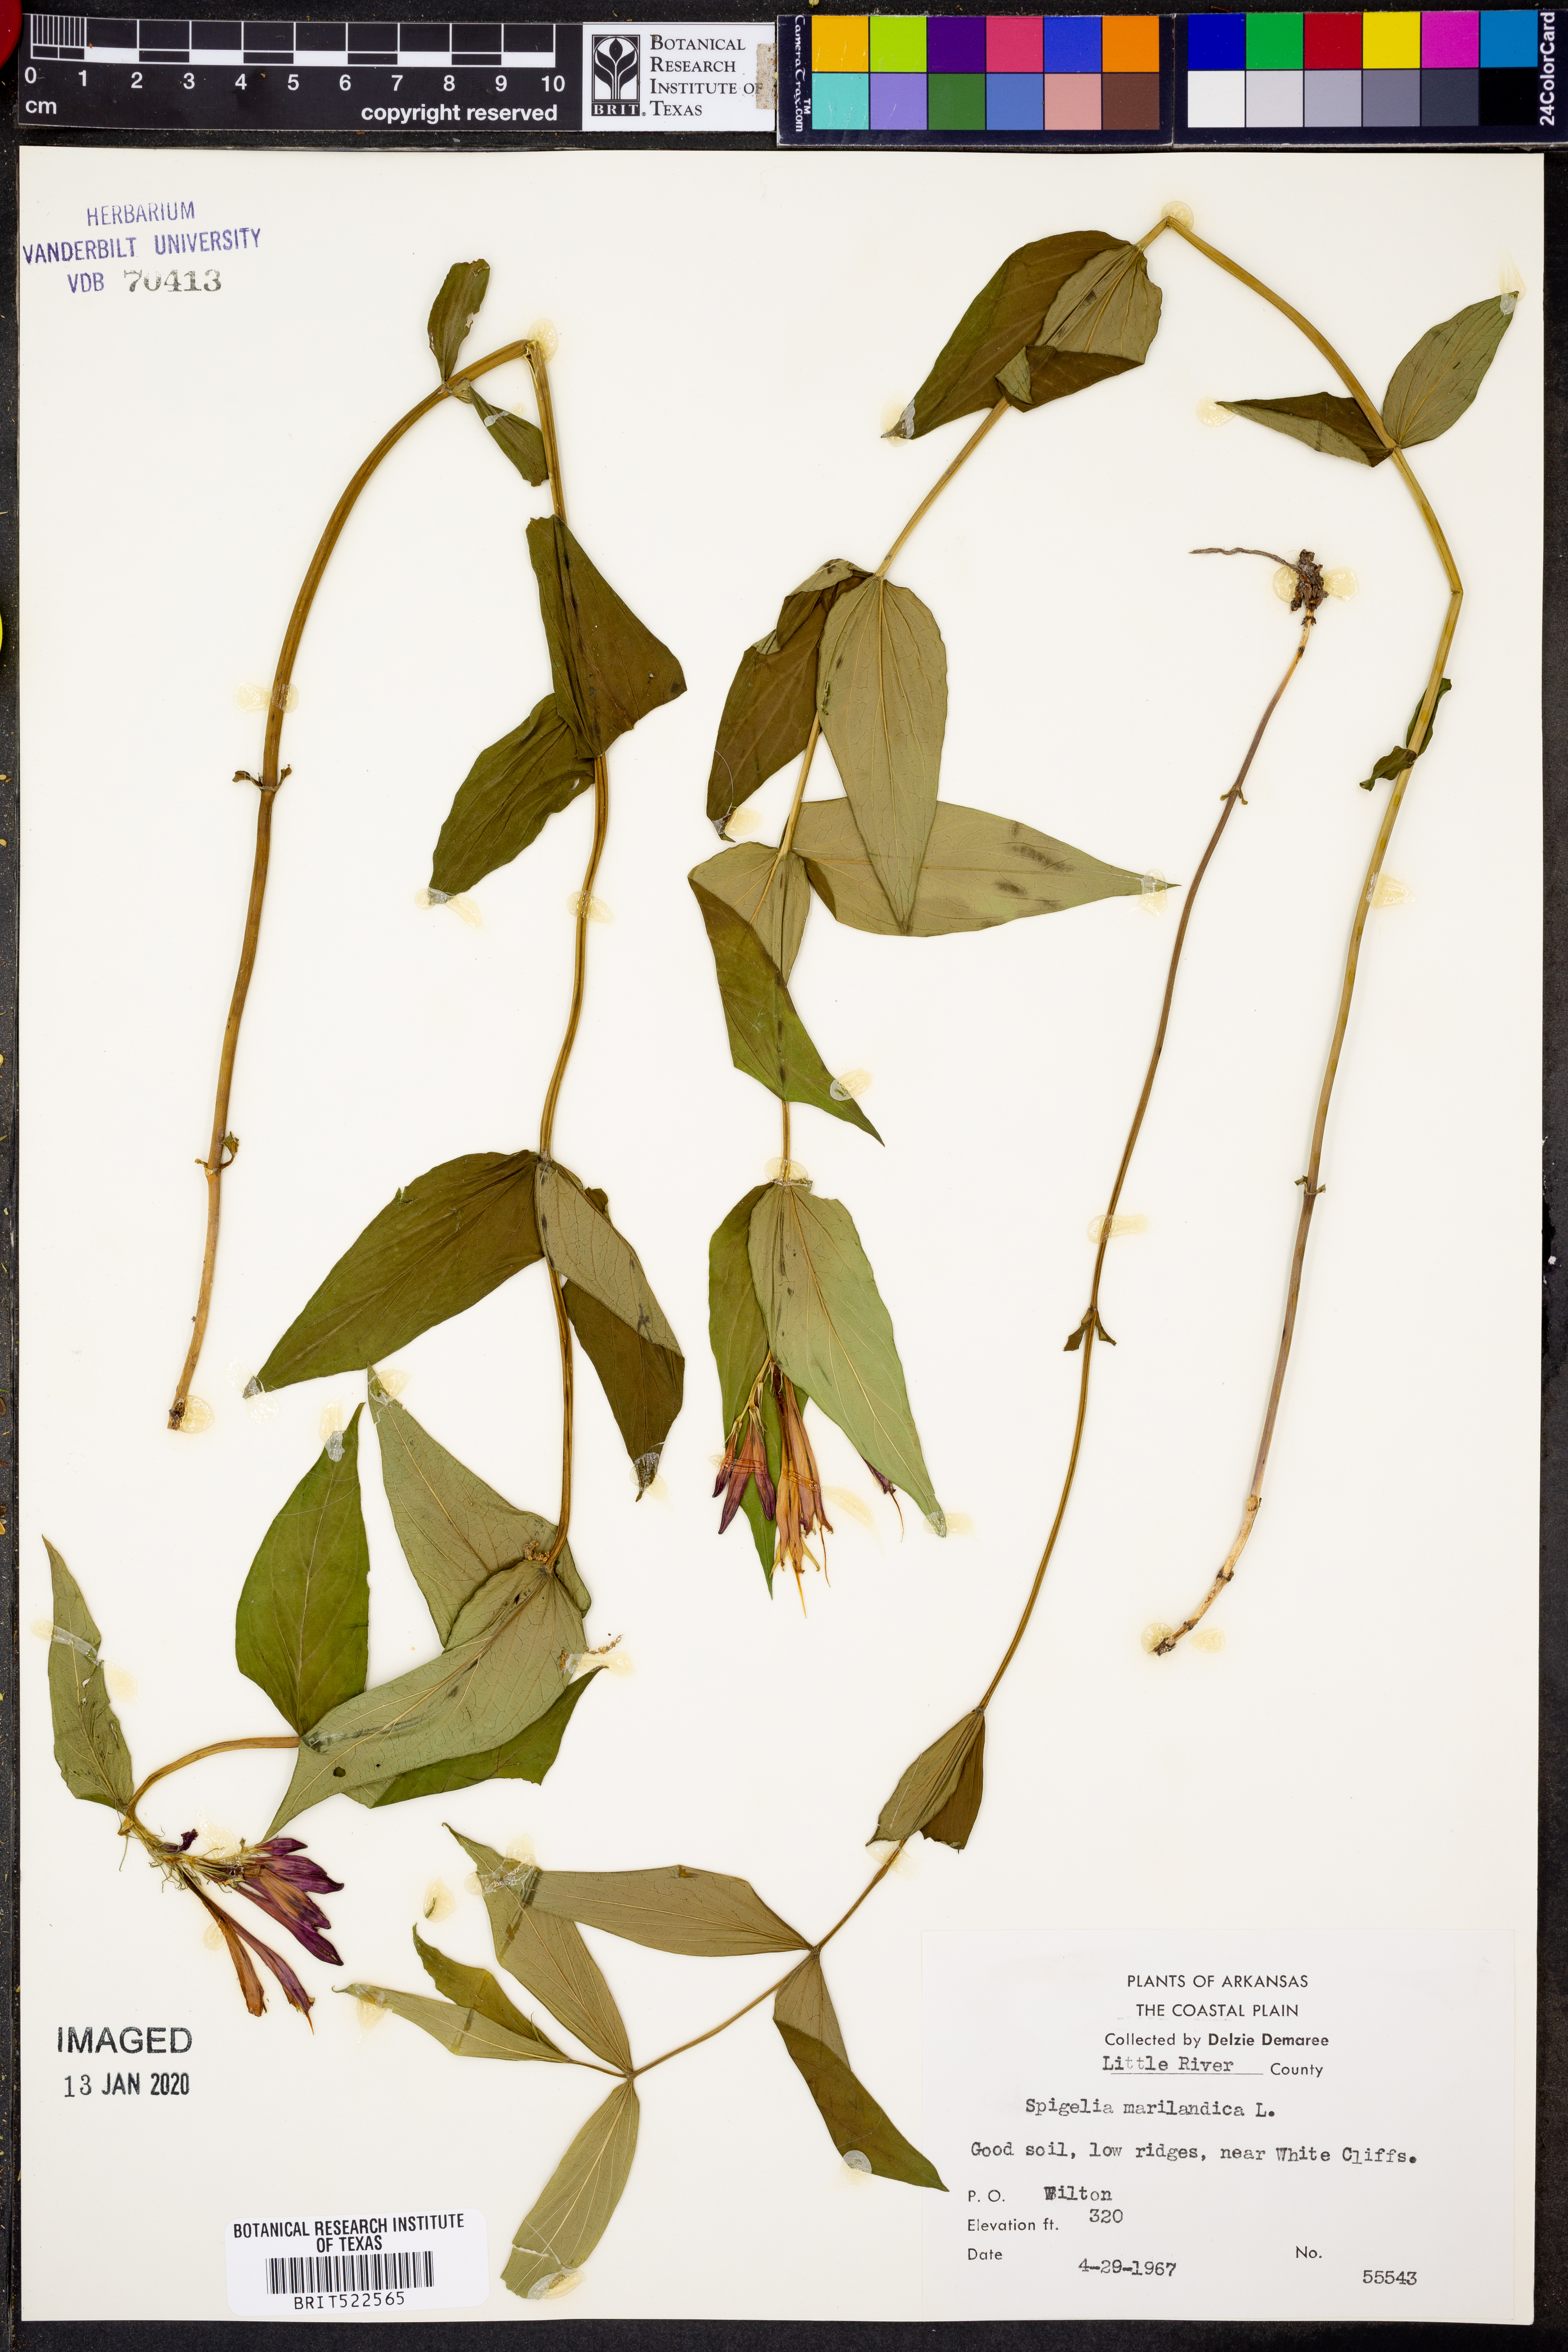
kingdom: Plantae
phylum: Tracheophyta
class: Magnoliopsida
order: Gentianales
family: Loganiaceae
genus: Spigelia
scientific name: Spigelia marilandica
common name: Indian-pink
